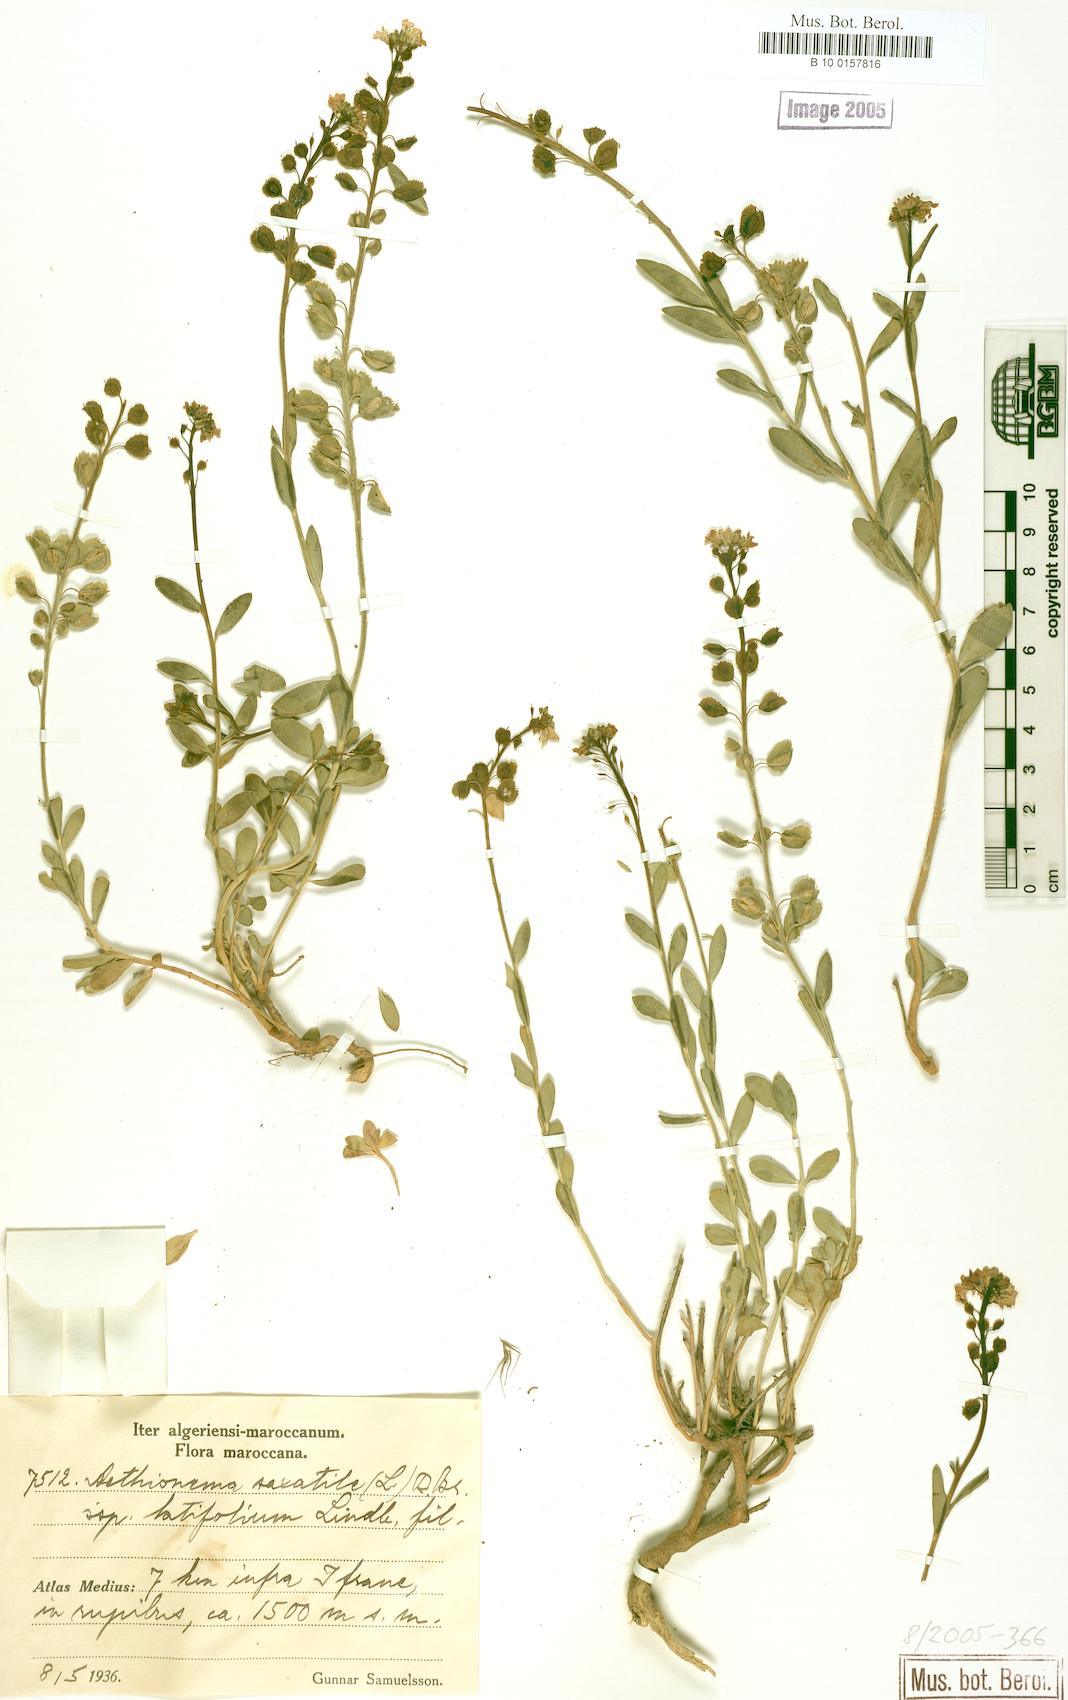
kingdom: Plantae
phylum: Tracheophyta
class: Magnoliopsida
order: Brassicales
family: Brassicaceae
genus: Aethionema
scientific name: Aethionema saxatile
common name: Burnt candytuft
